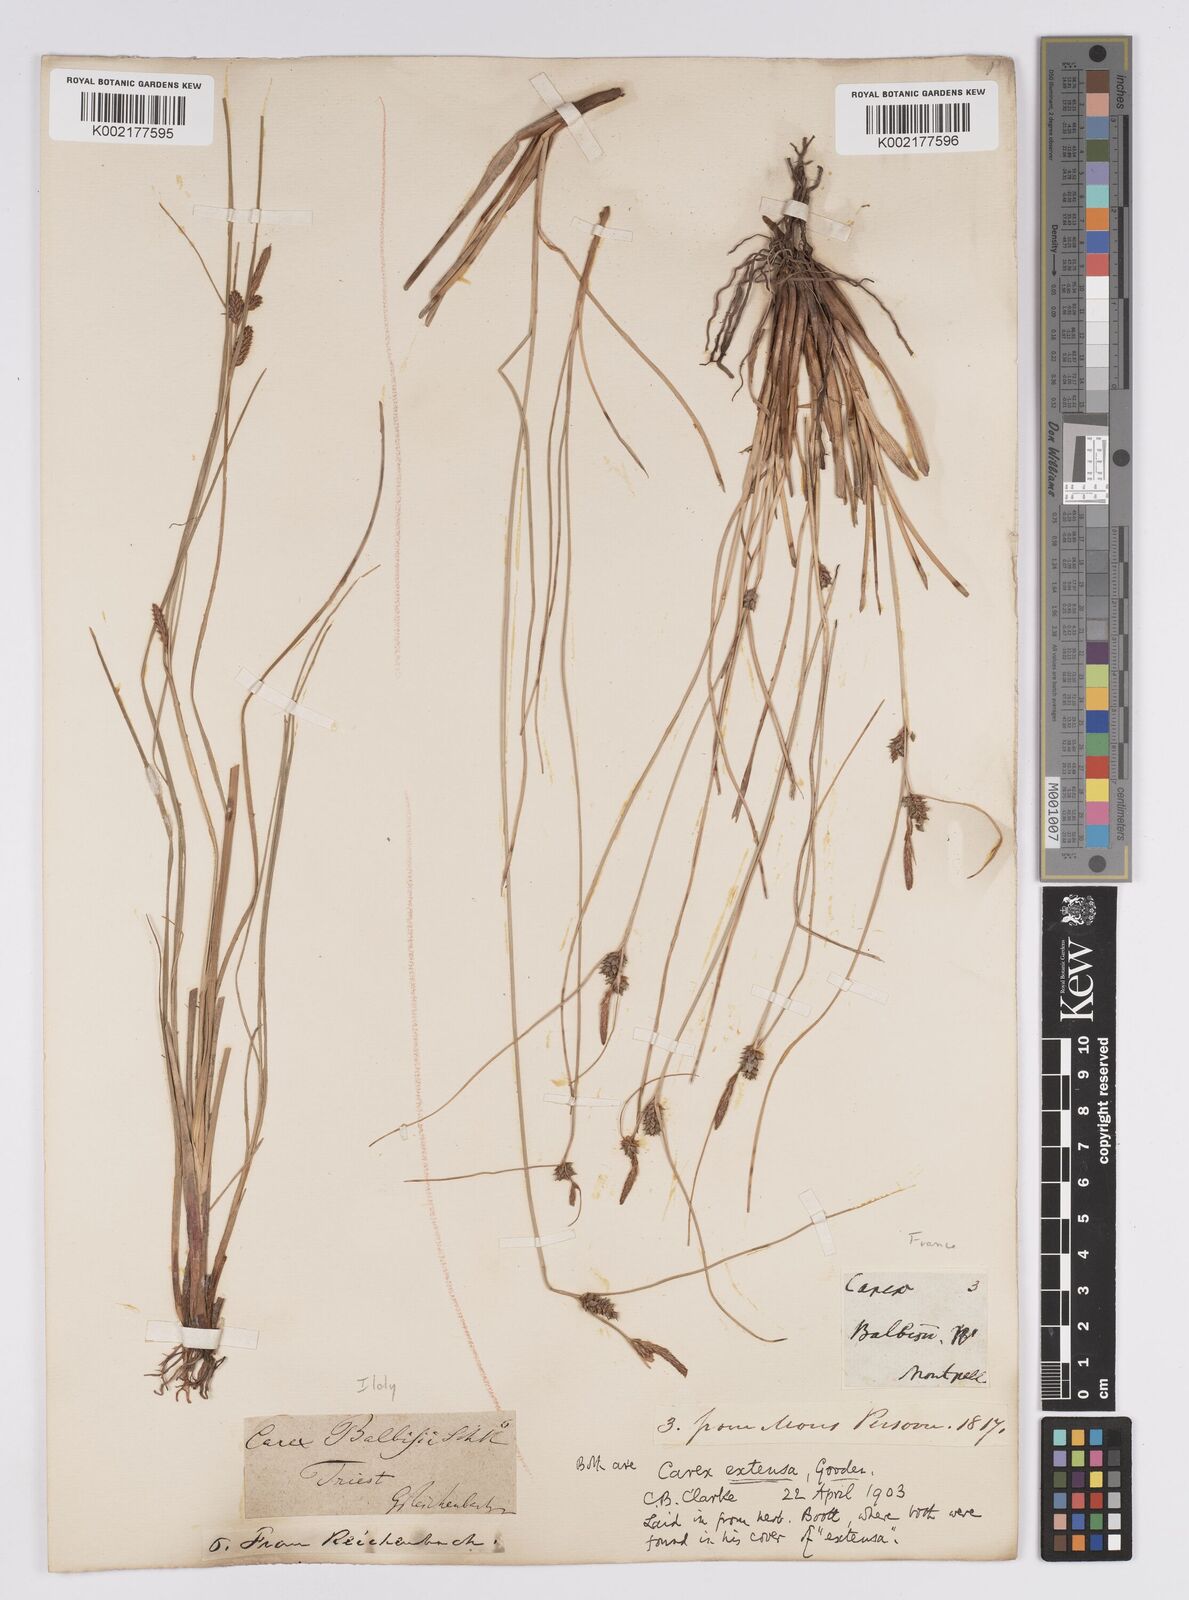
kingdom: Plantae
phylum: Tracheophyta
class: Liliopsida
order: Poales
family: Cyperaceae
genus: Carex
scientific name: Carex extensa
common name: Long-bracted sedge
